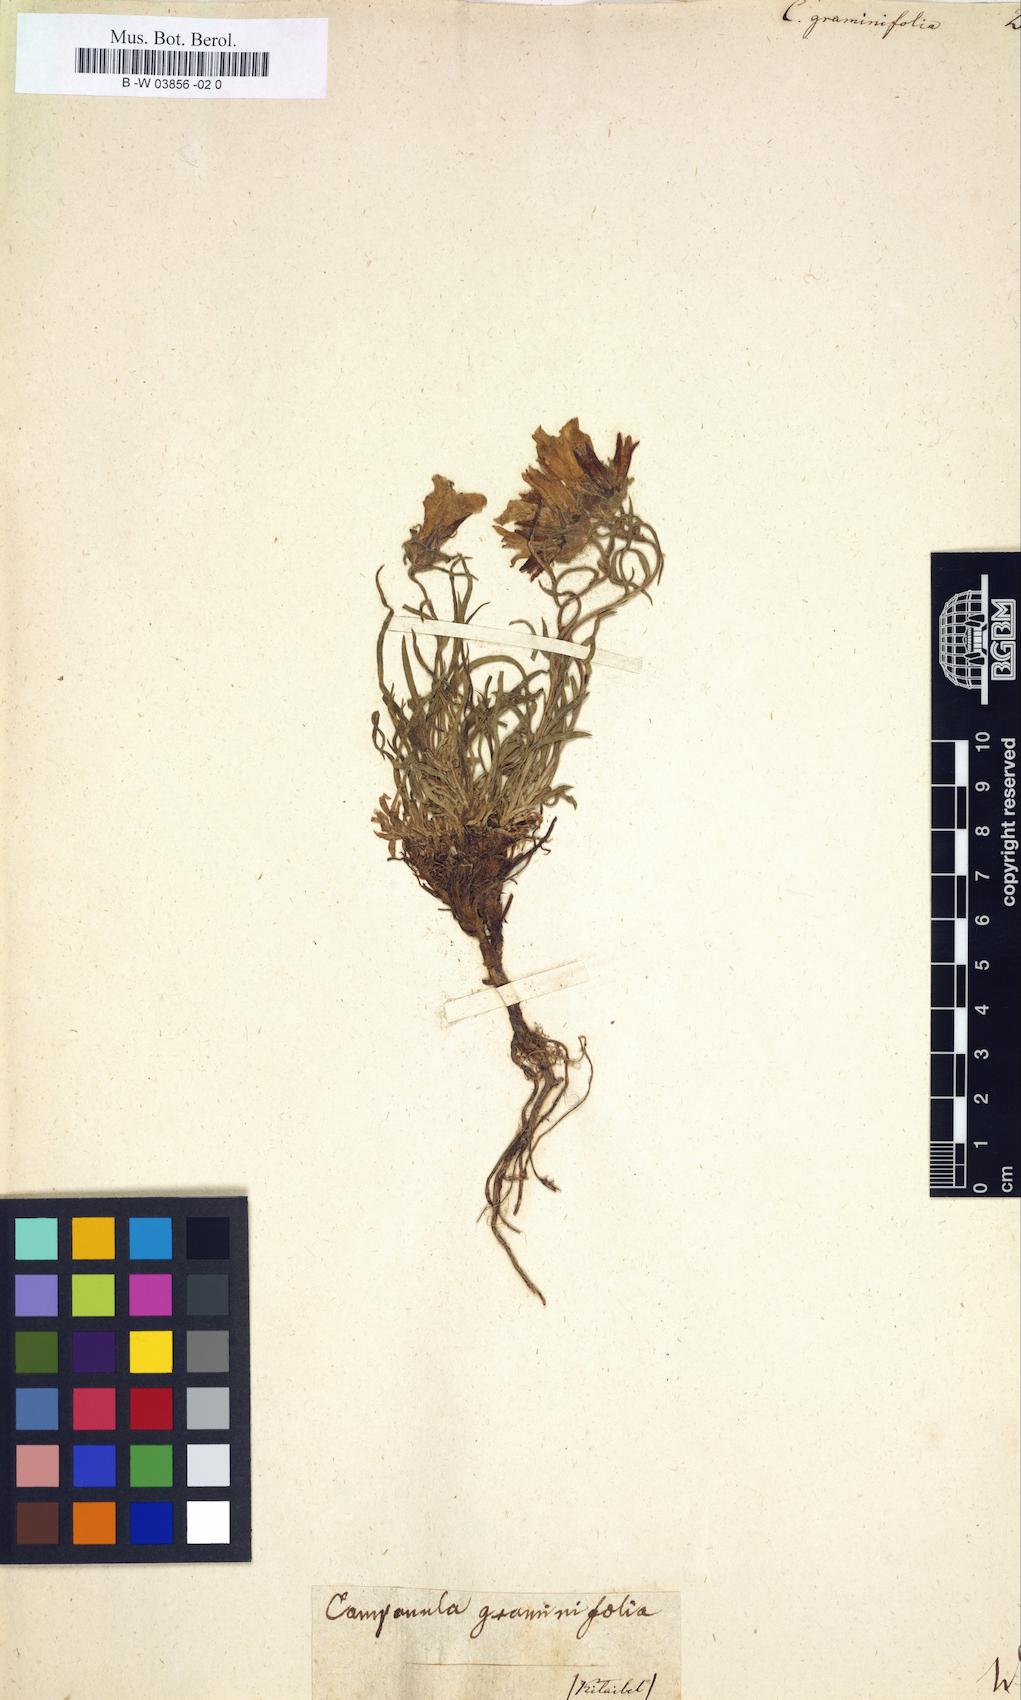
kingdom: Plantae
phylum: Tracheophyta
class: Magnoliopsida
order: Asterales
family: Campanulaceae
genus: Edraianthus
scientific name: Edraianthus graminifolius
